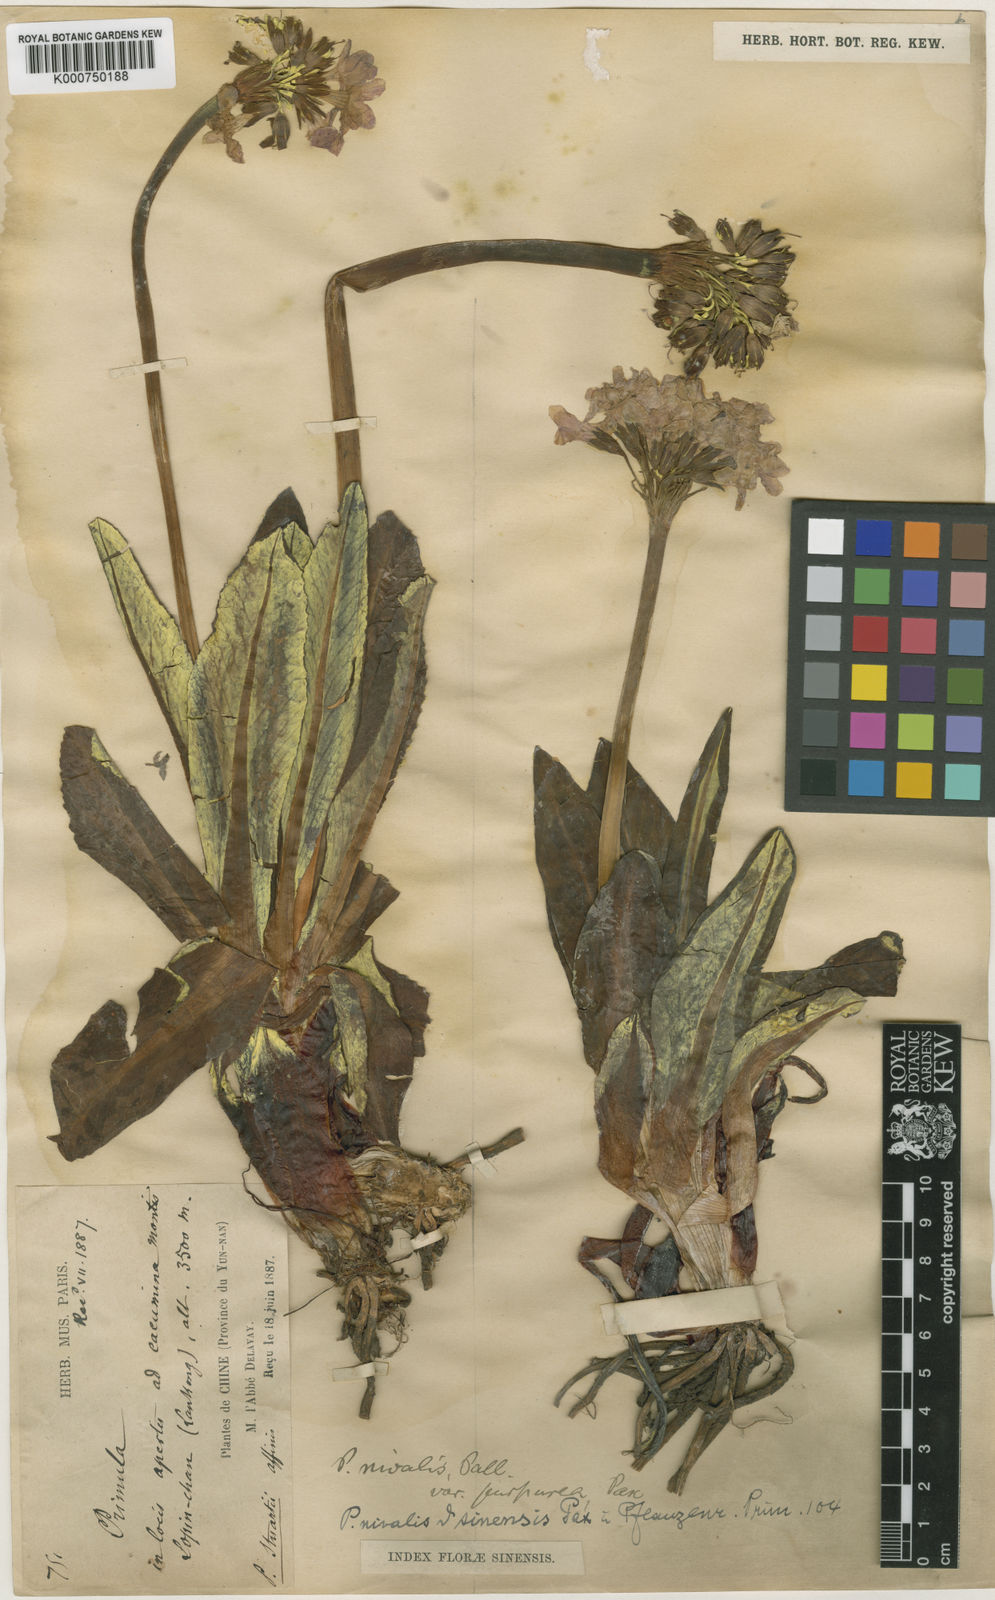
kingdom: Plantae
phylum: Tracheophyta
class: Magnoliopsida
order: Ericales
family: Primulaceae
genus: Primula
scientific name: Primula
